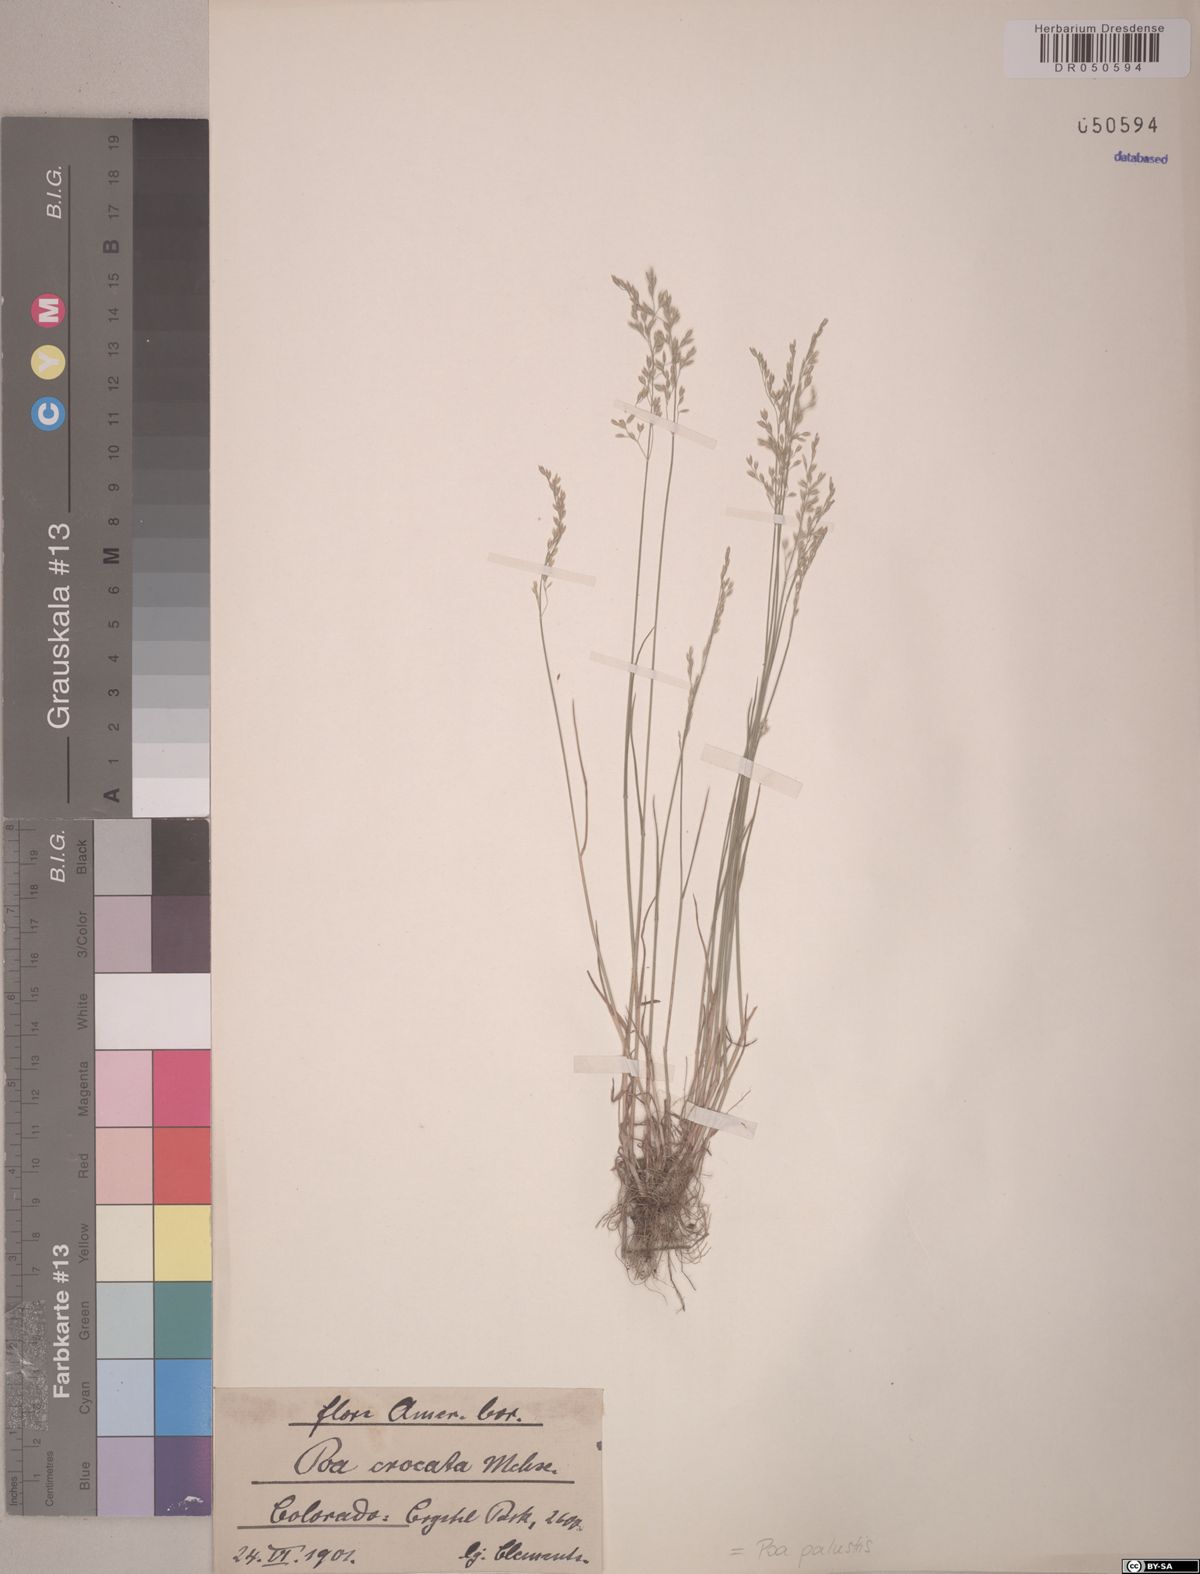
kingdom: Plantae
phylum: Tracheophyta
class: Liliopsida
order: Poales
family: Poaceae
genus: Poa
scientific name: Poa palustris
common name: Swamp meadow-grass
